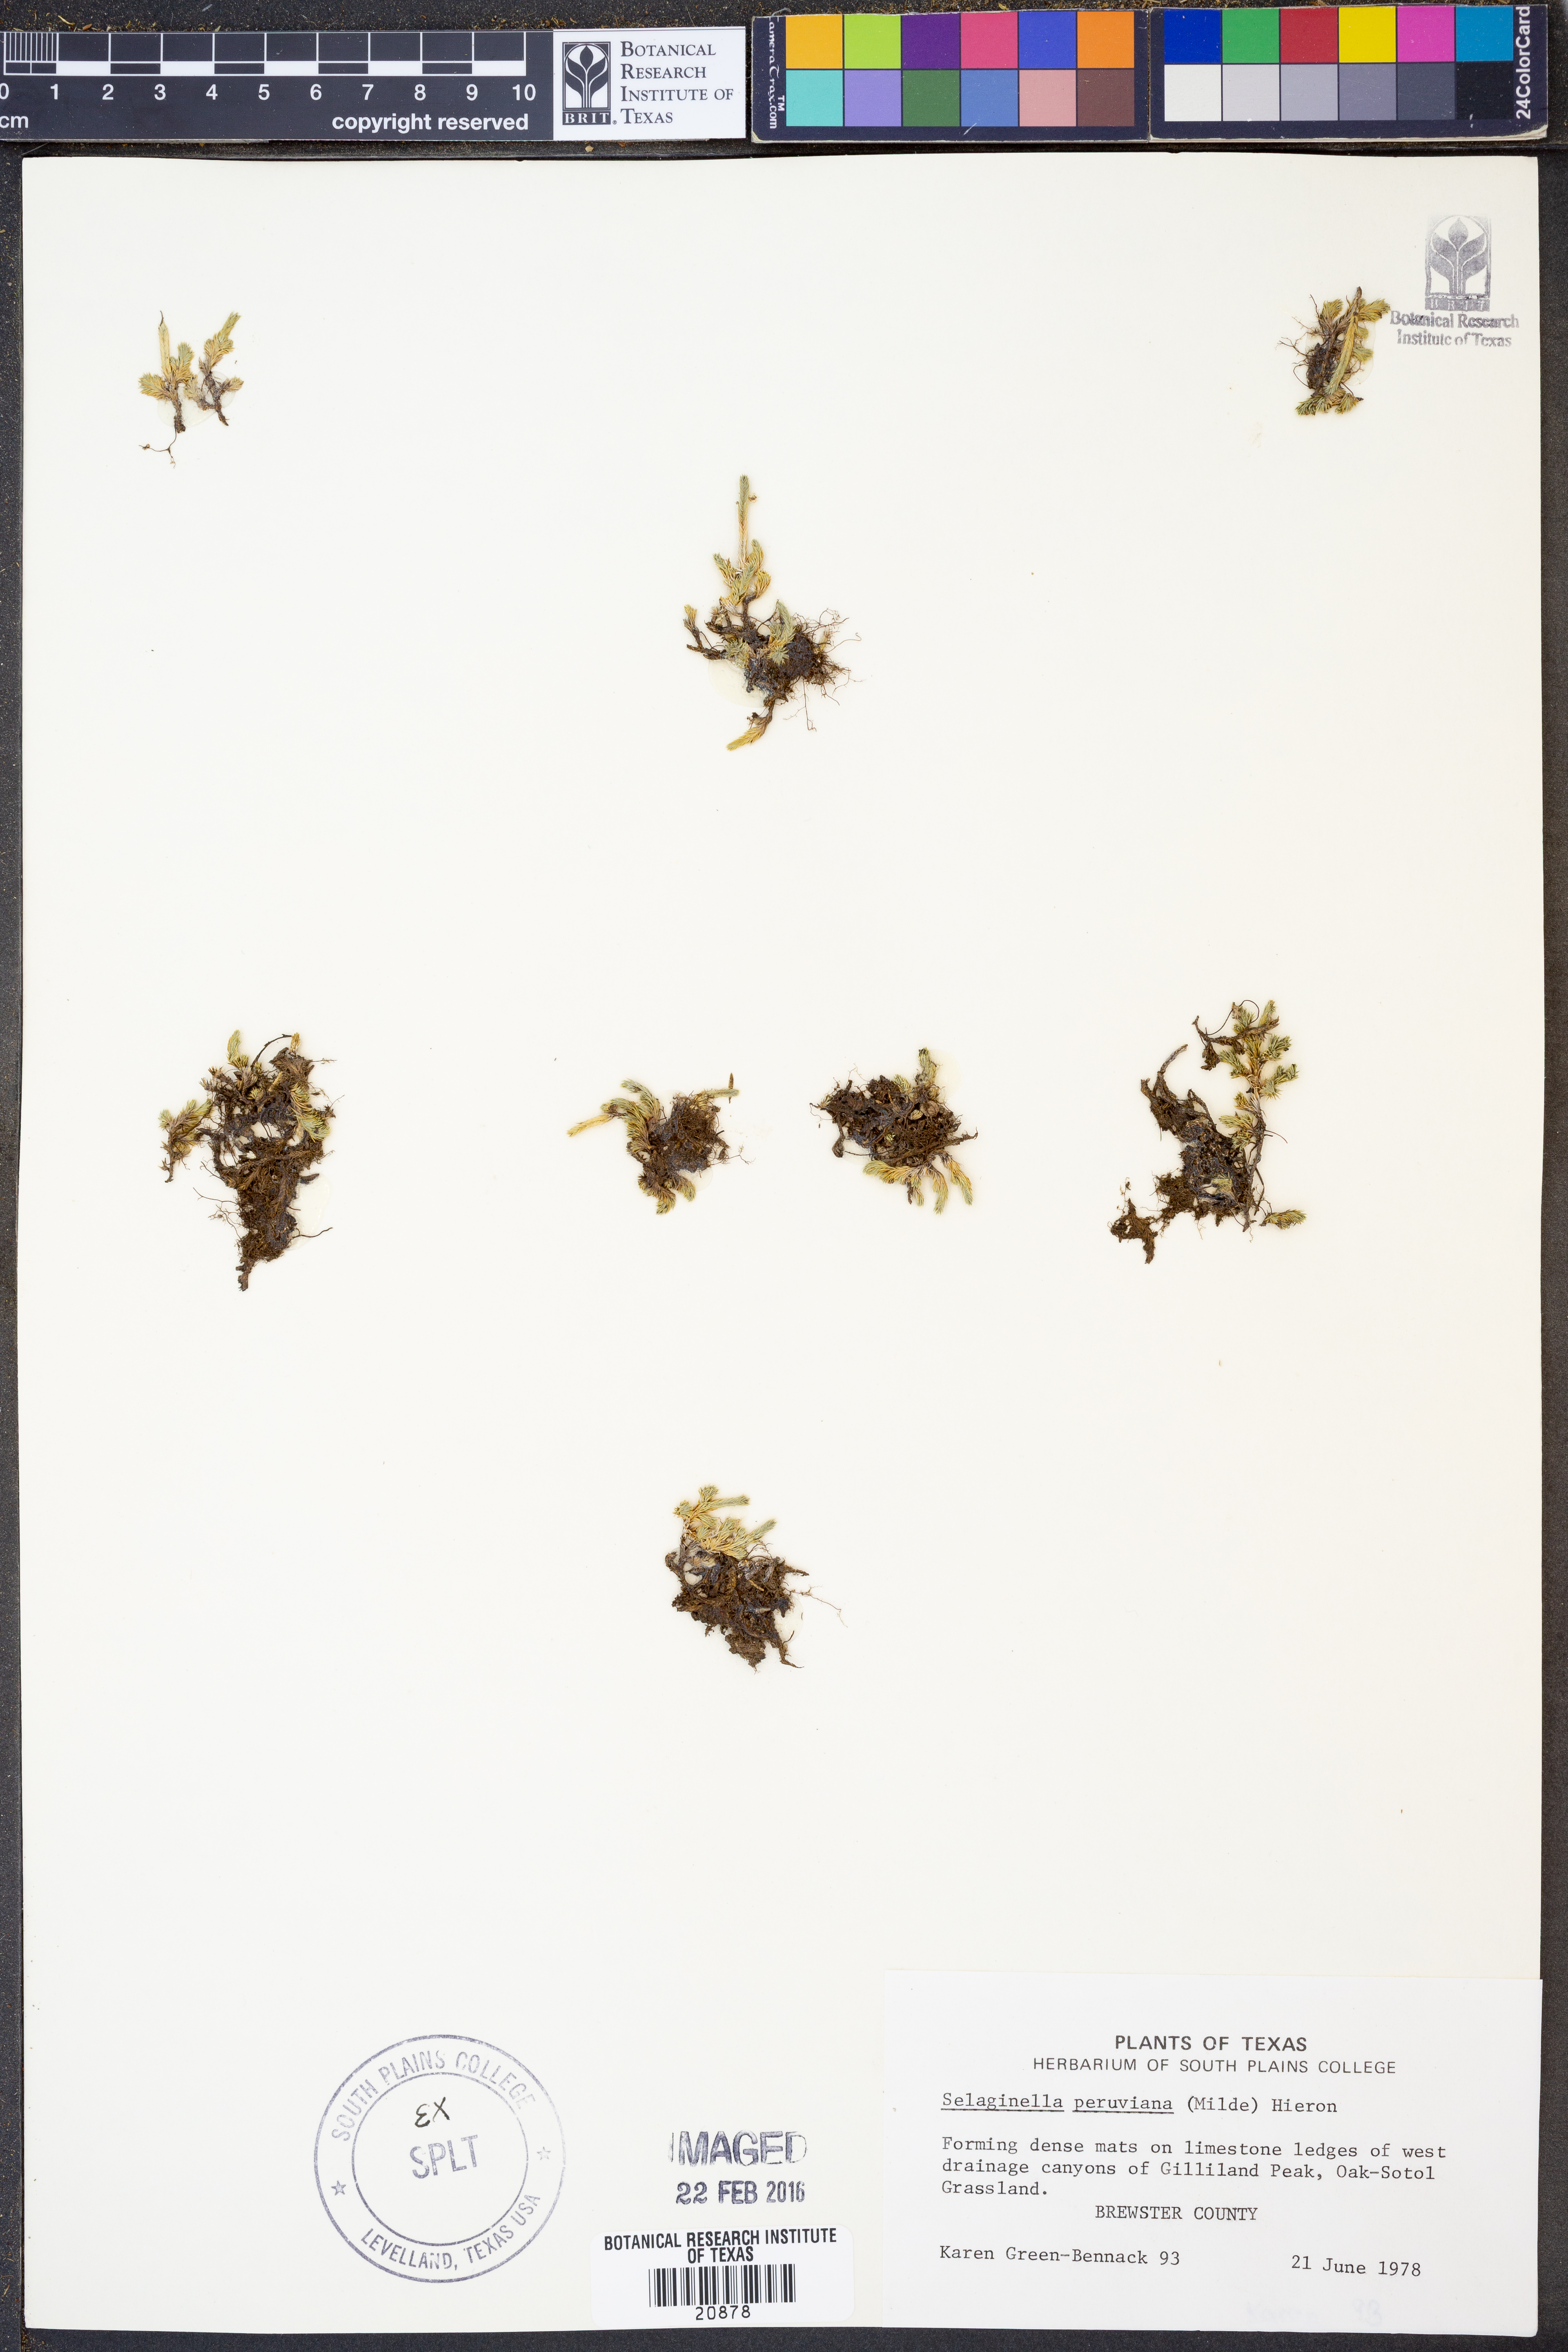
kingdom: Plantae
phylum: Tracheophyta
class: Lycopodiopsida
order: Selaginellales
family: Selaginellaceae
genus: Selaginella
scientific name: Selaginella peruviana
